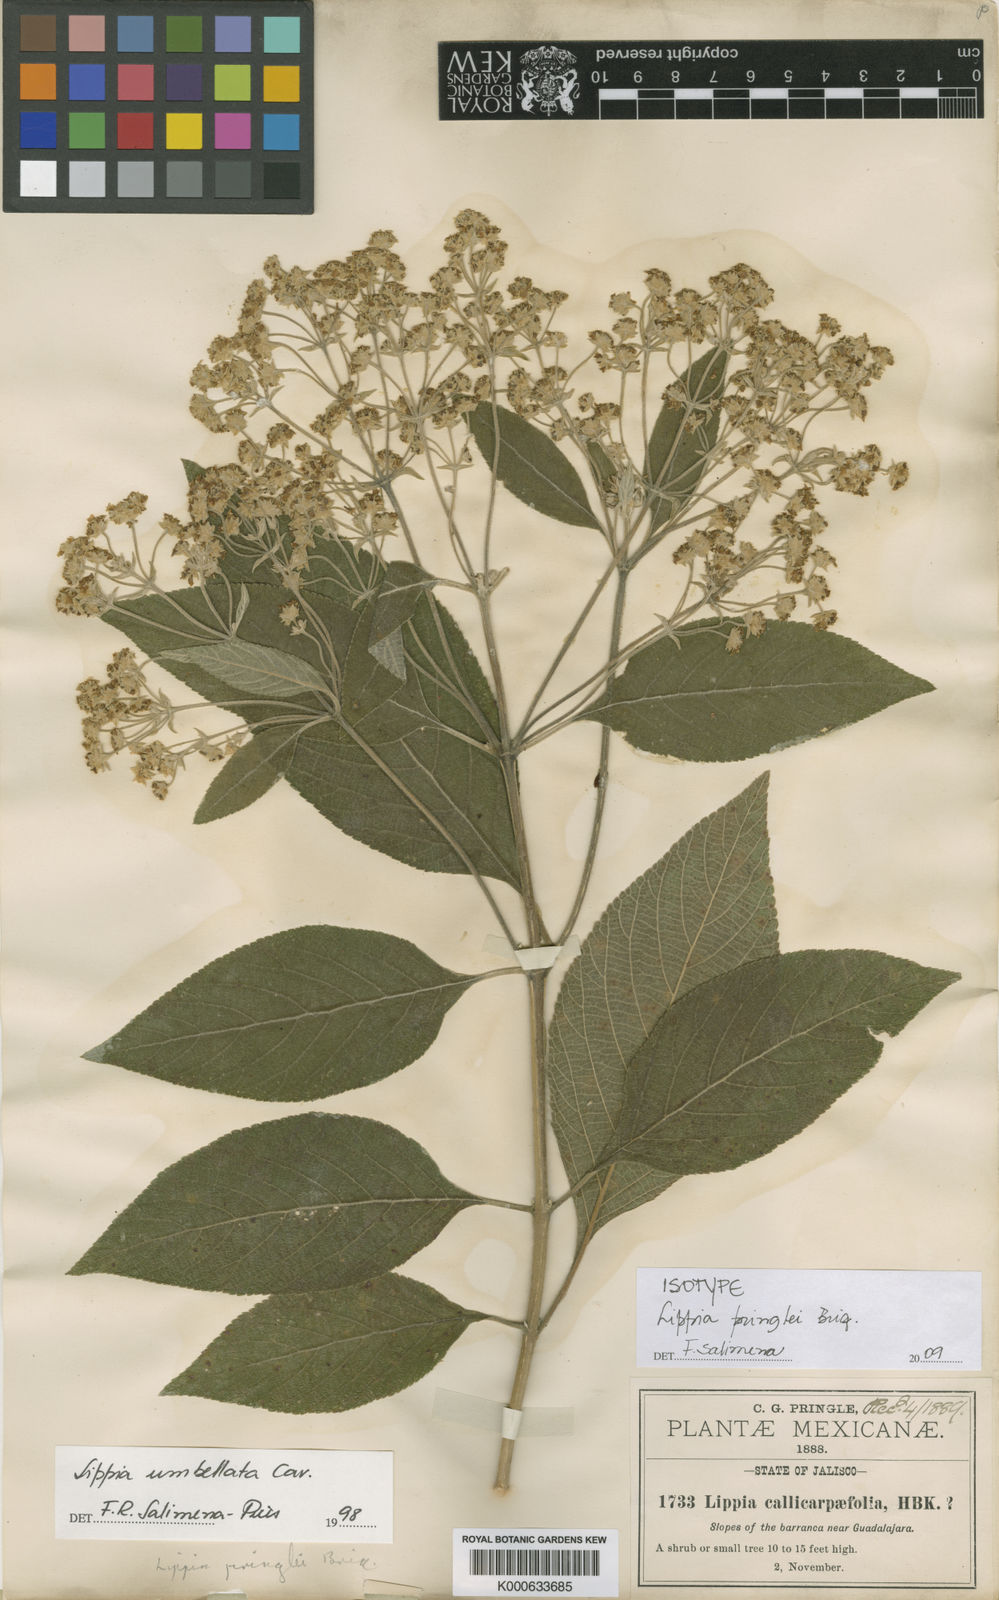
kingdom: Plantae
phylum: Tracheophyta
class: Magnoliopsida
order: Lamiales
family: Verbenaceae
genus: Lippia
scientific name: Lippia umbellata
